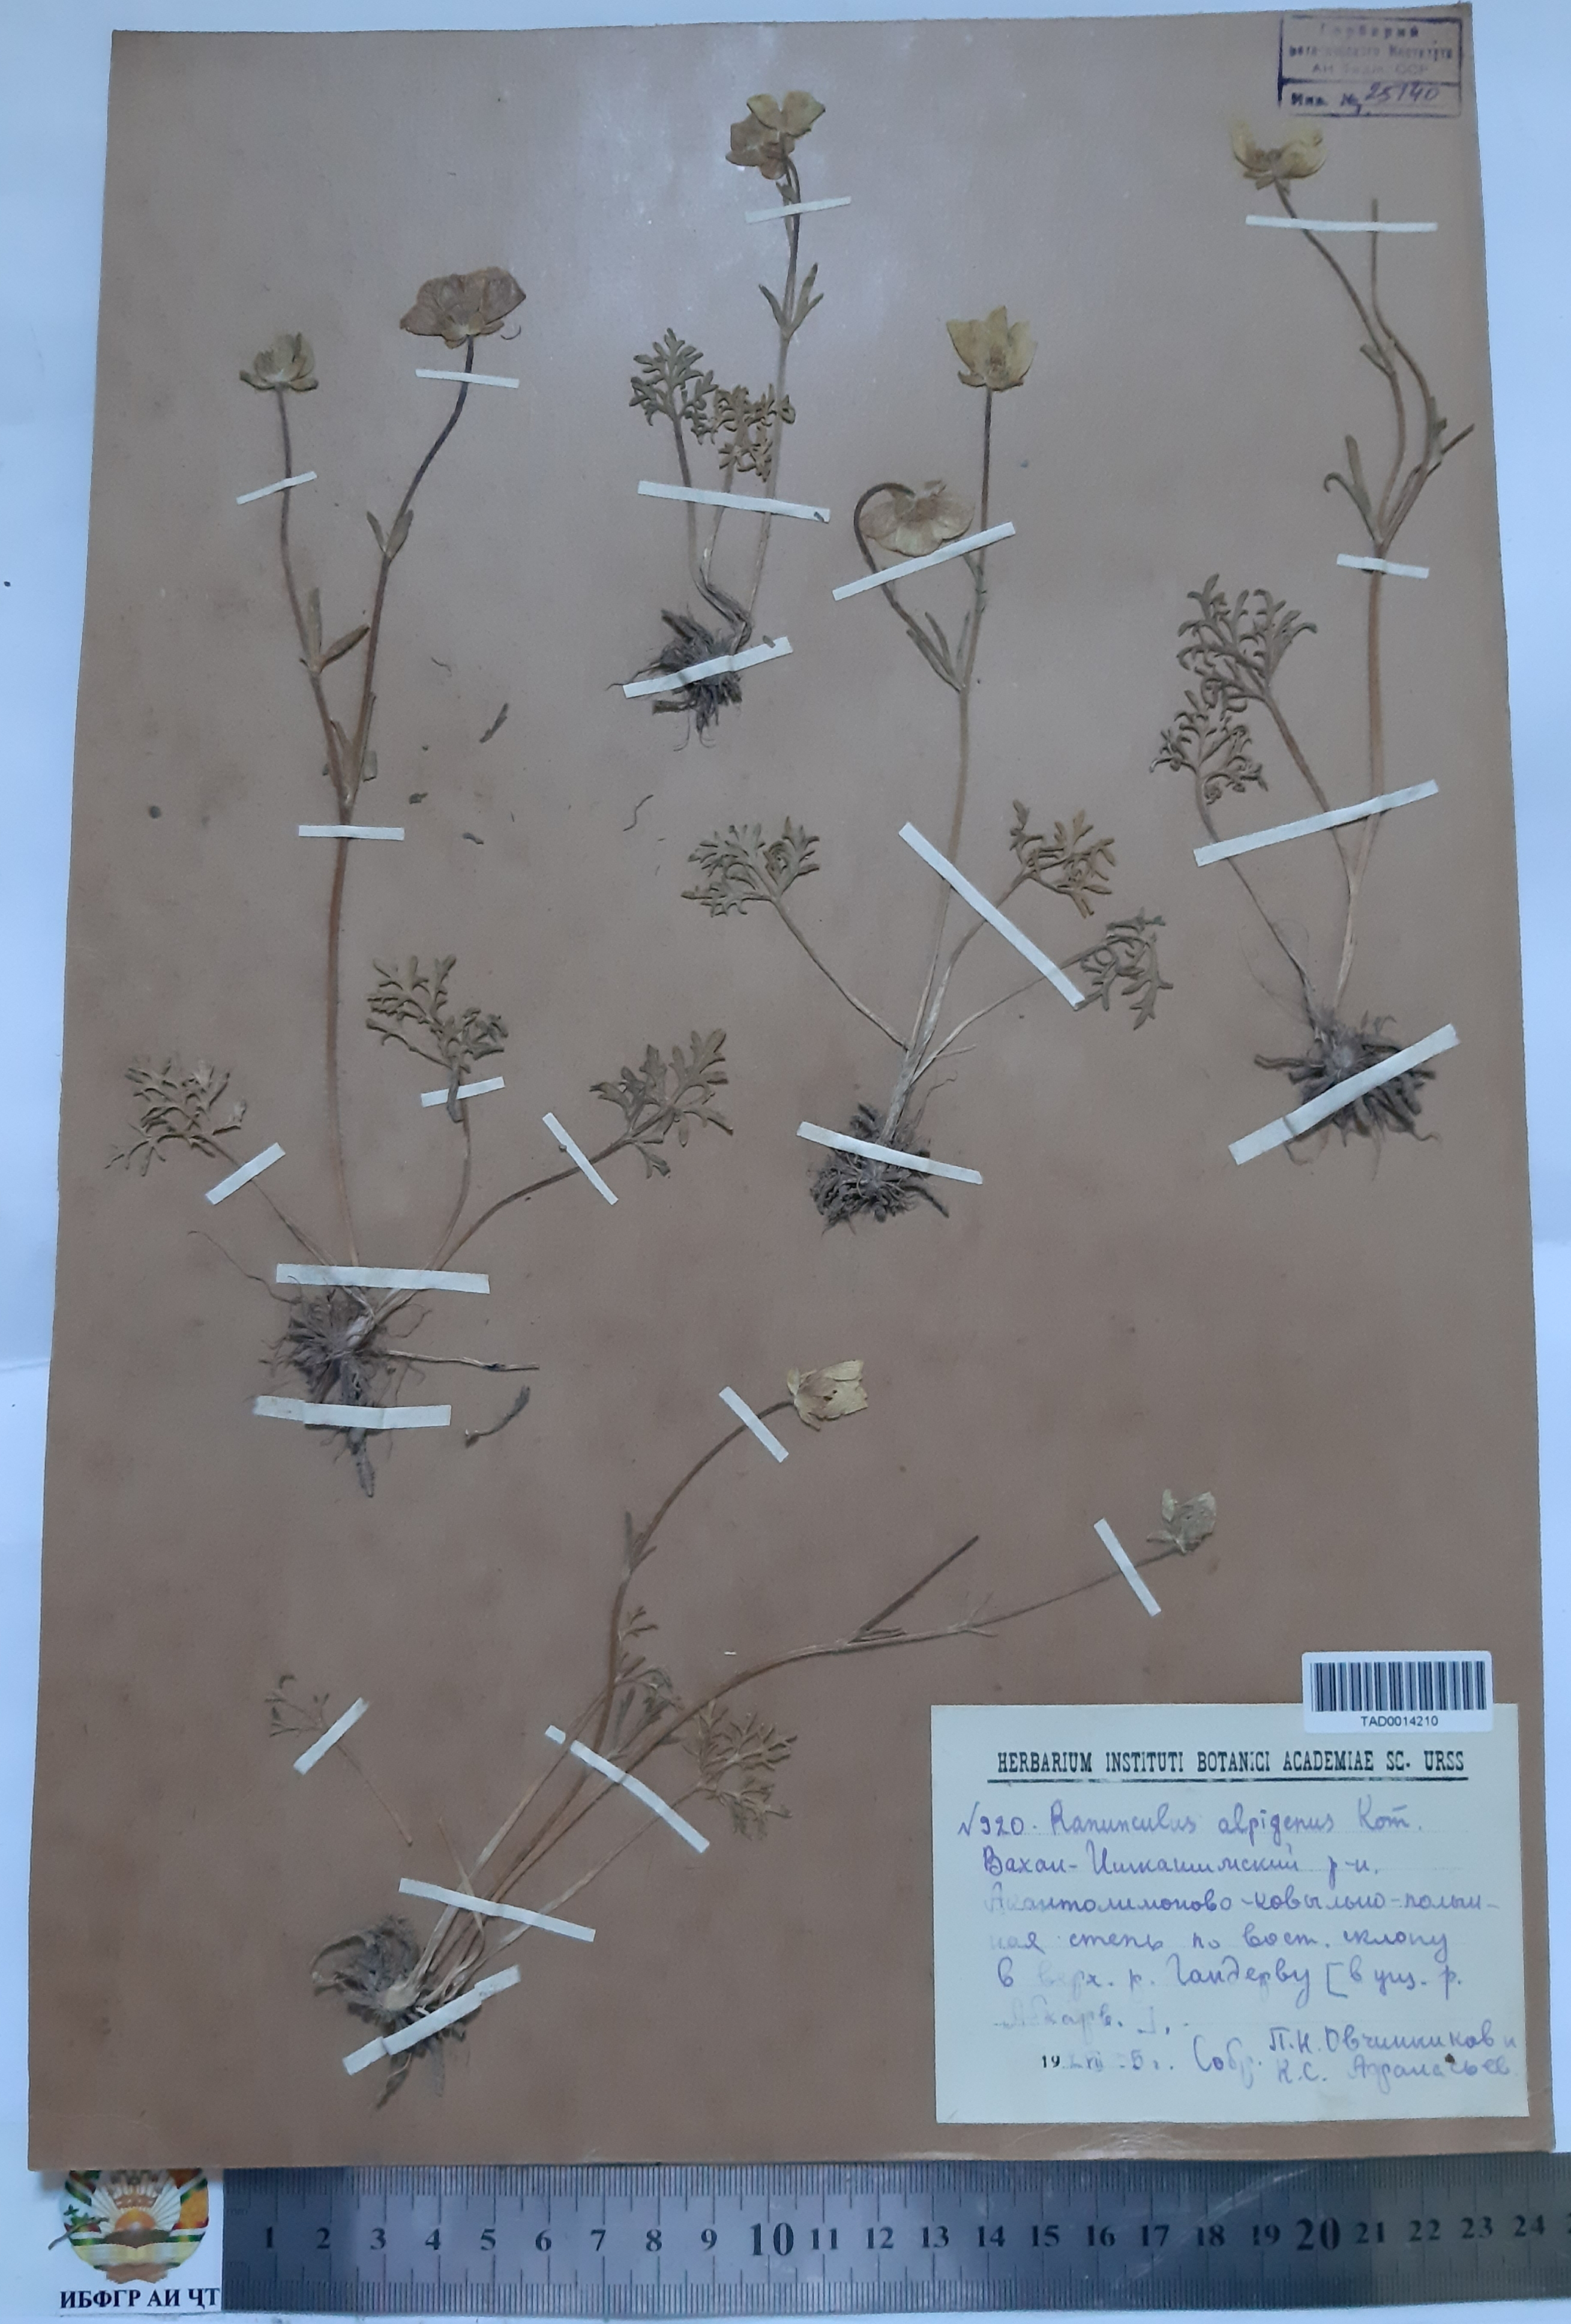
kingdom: Plantae
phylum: Tracheophyta
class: Magnoliopsida
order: Ranunculales
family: Ranunculaceae
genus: Ranunculus
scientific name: Ranunculus alpigenus
